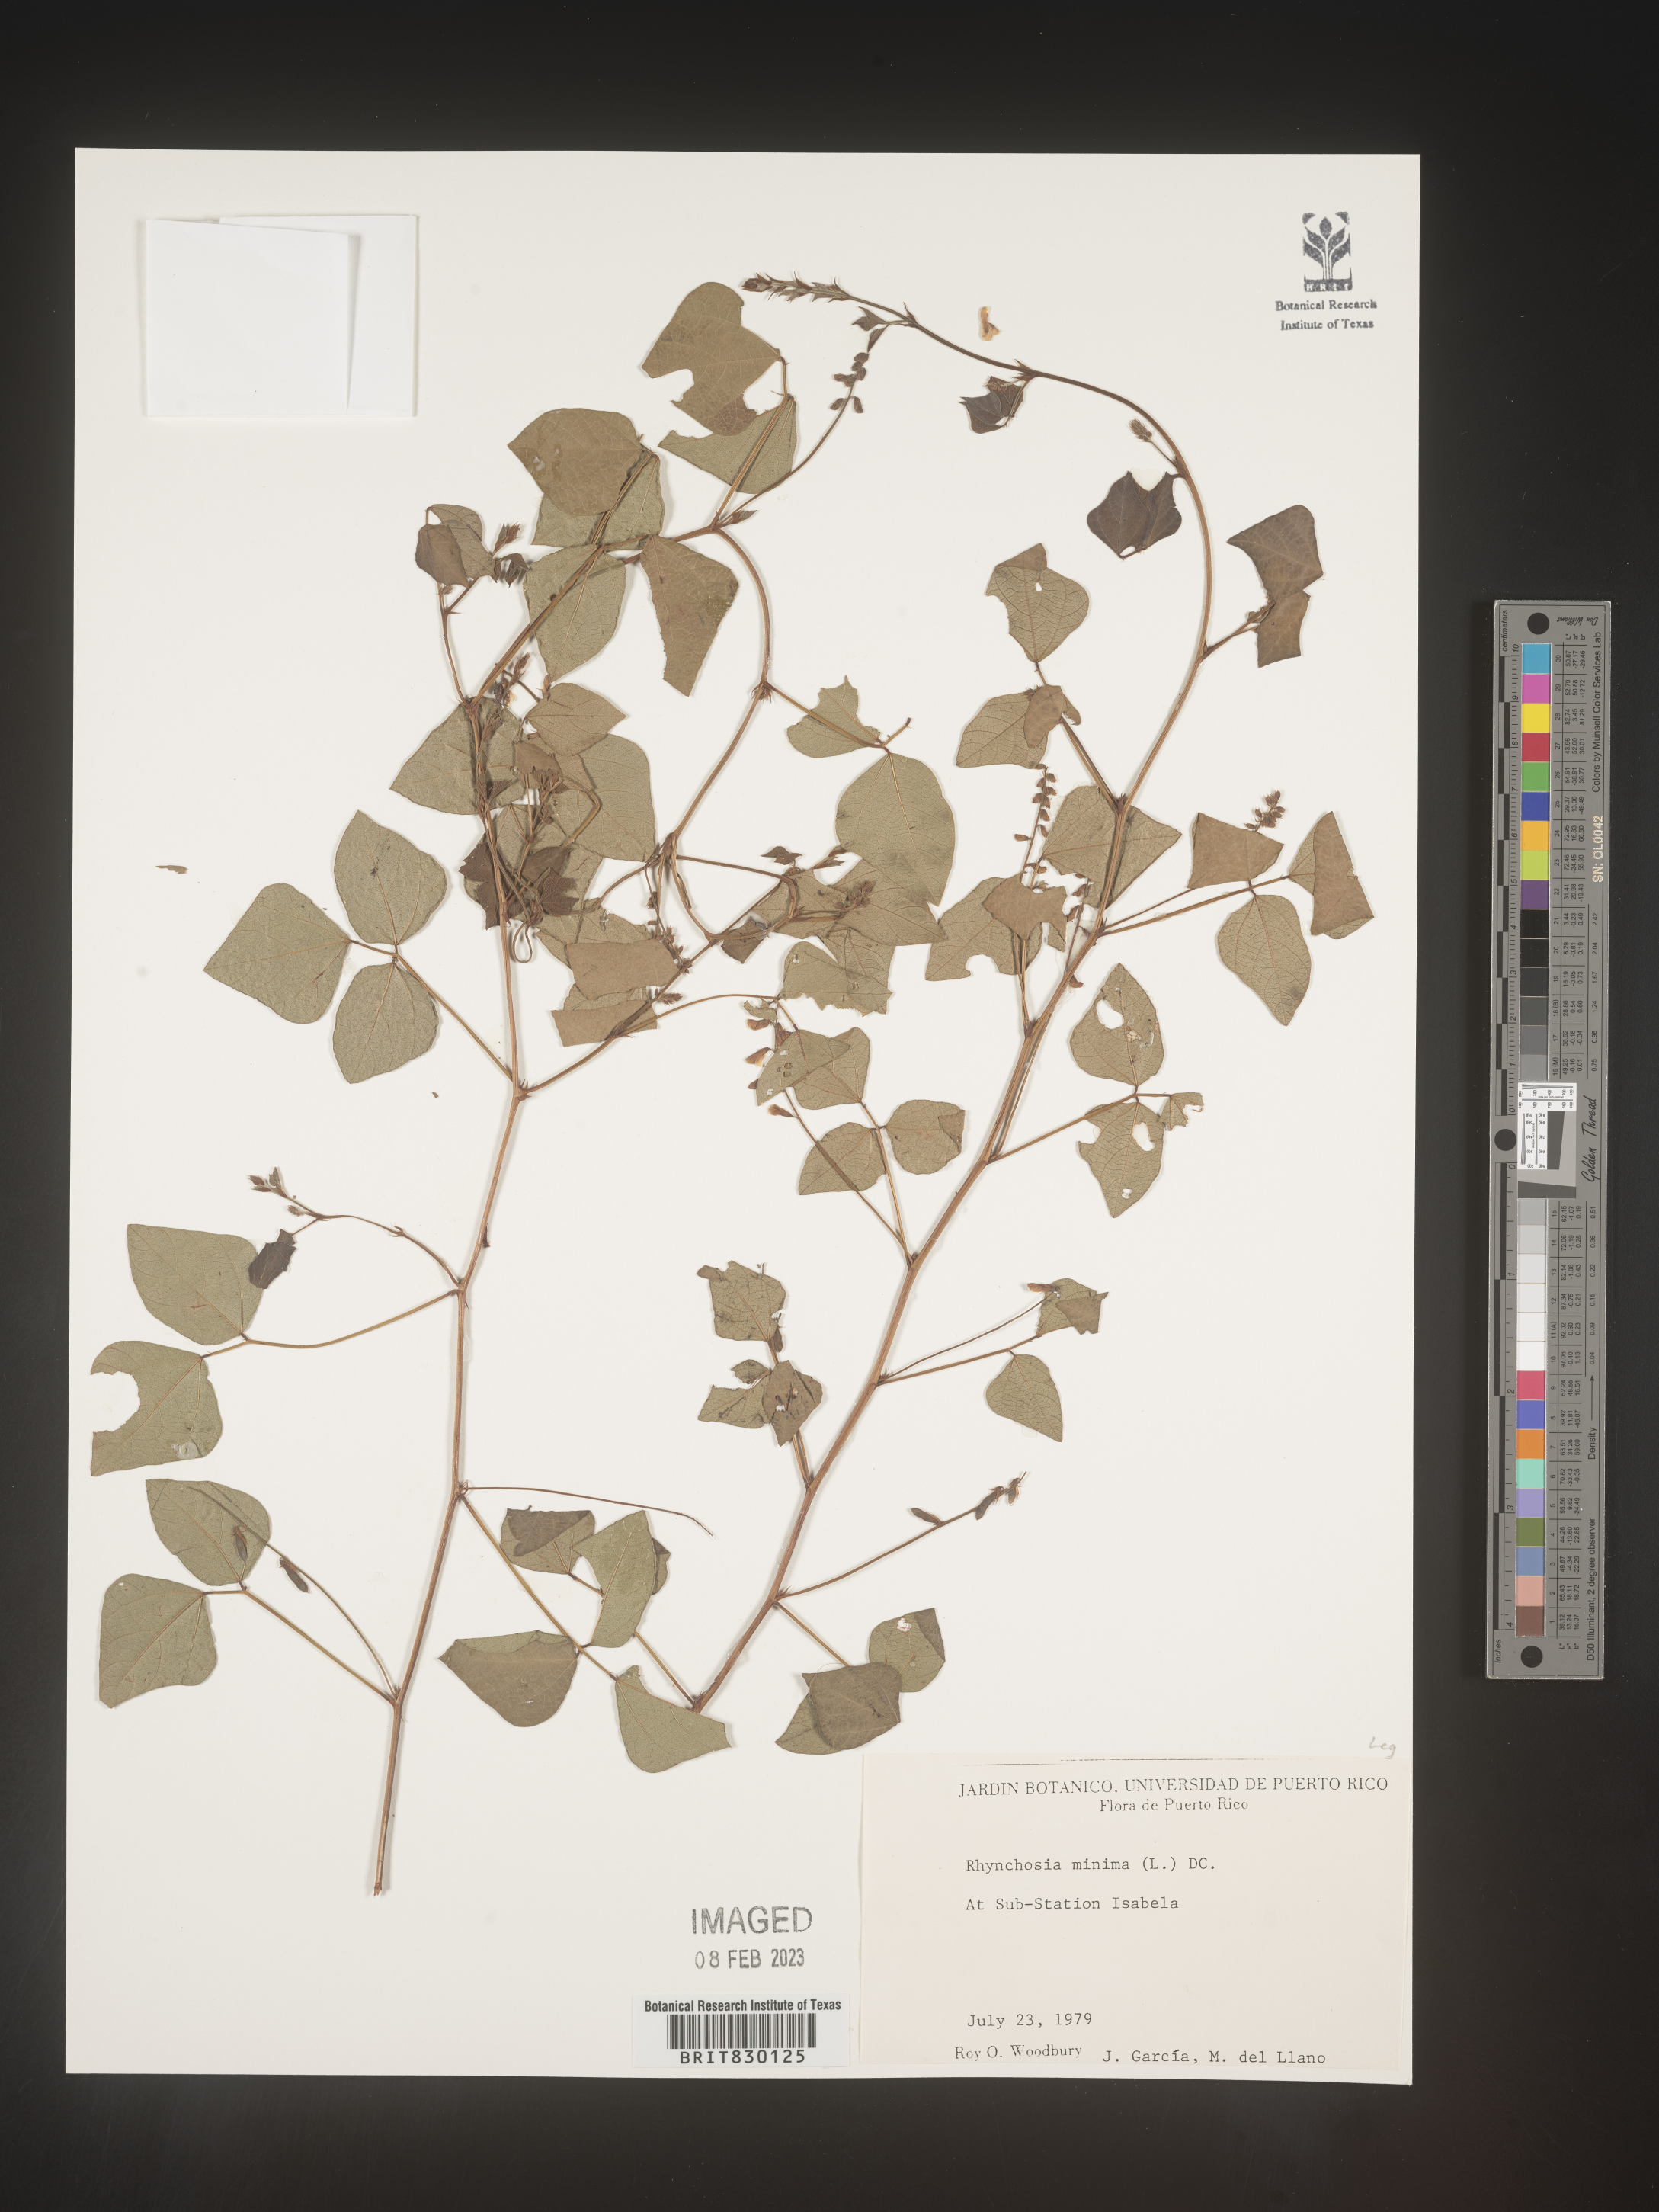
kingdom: Plantae
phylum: Tracheophyta
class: Magnoliopsida
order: Fabales
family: Fabaceae
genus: Rhynchosia
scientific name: Rhynchosia
